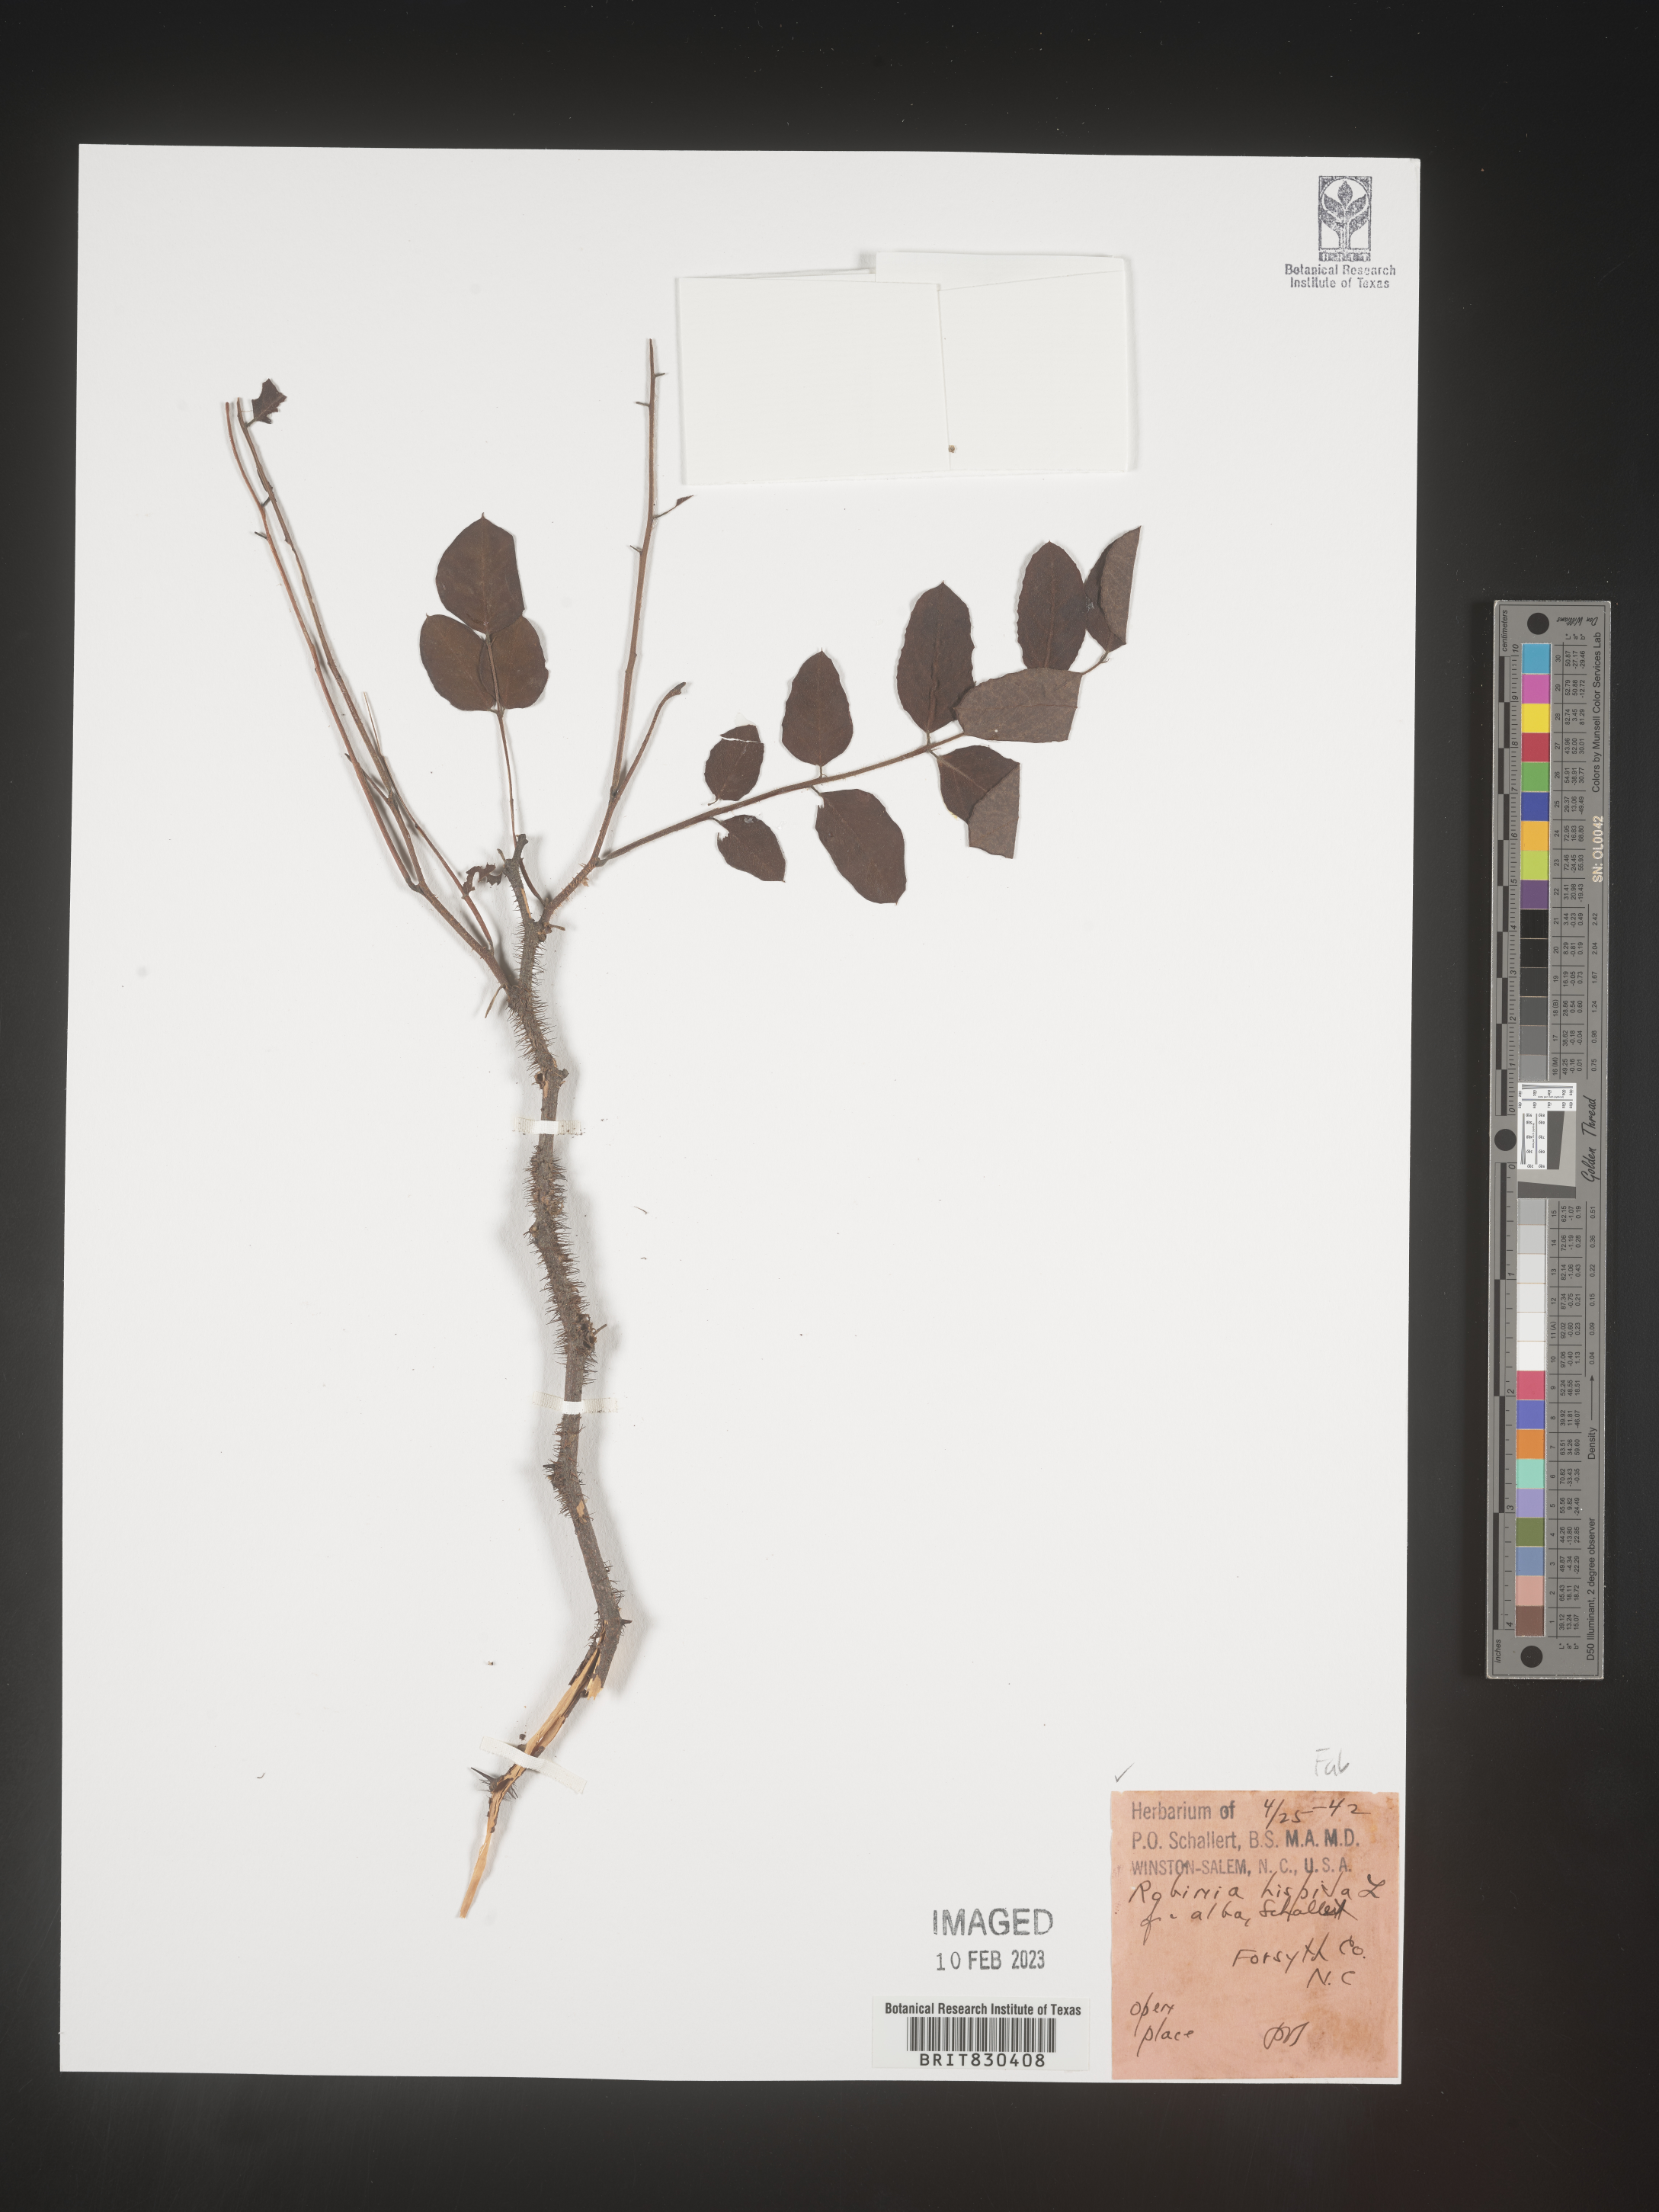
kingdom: Plantae
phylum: Tracheophyta
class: Magnoliopsida
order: Fabales
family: Fabaceae
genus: Robinia
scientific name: Robinia hispida
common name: Bristly locust
